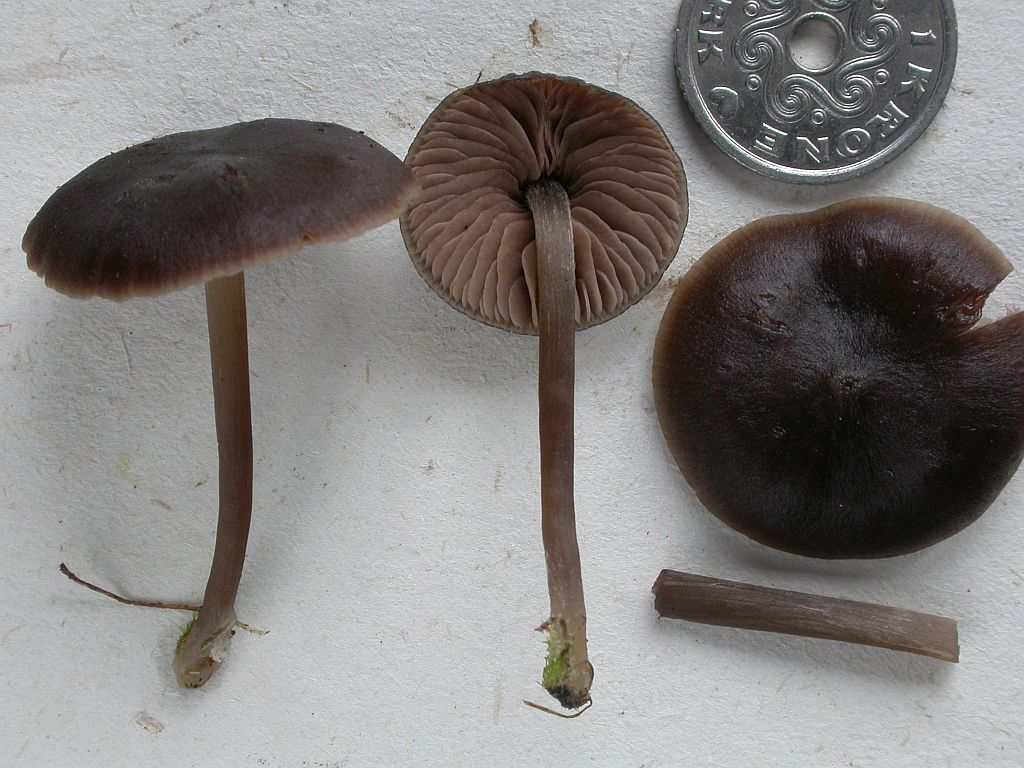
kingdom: Fungi
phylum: Basidiomycota
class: Agaricomycetes
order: Agaricales
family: Entolomataceae
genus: Entoloma
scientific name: Entoloma sericeum
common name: silkeglinsende rødblad
